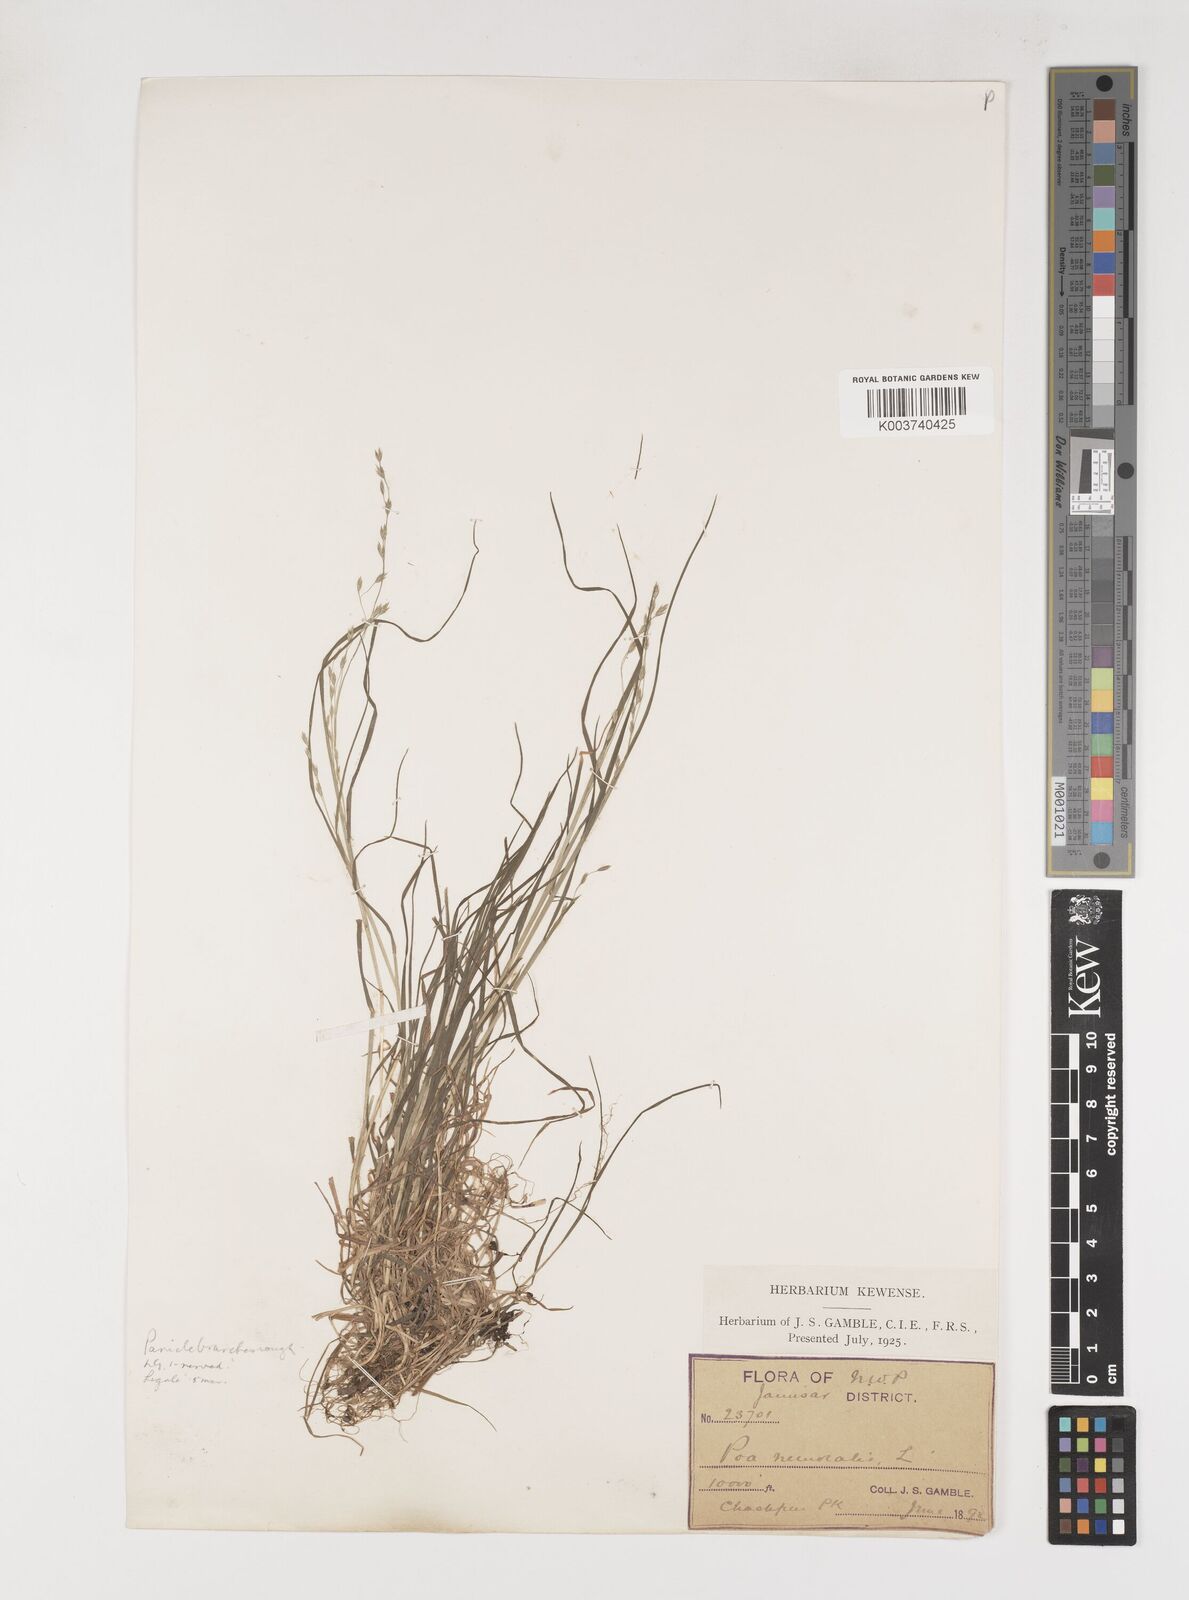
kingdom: Plantae
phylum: Tracheophyta
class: Liliopsida
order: Poales
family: Poaceae
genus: Poa
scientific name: Poa nemoralis
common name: Wood bluegrass
